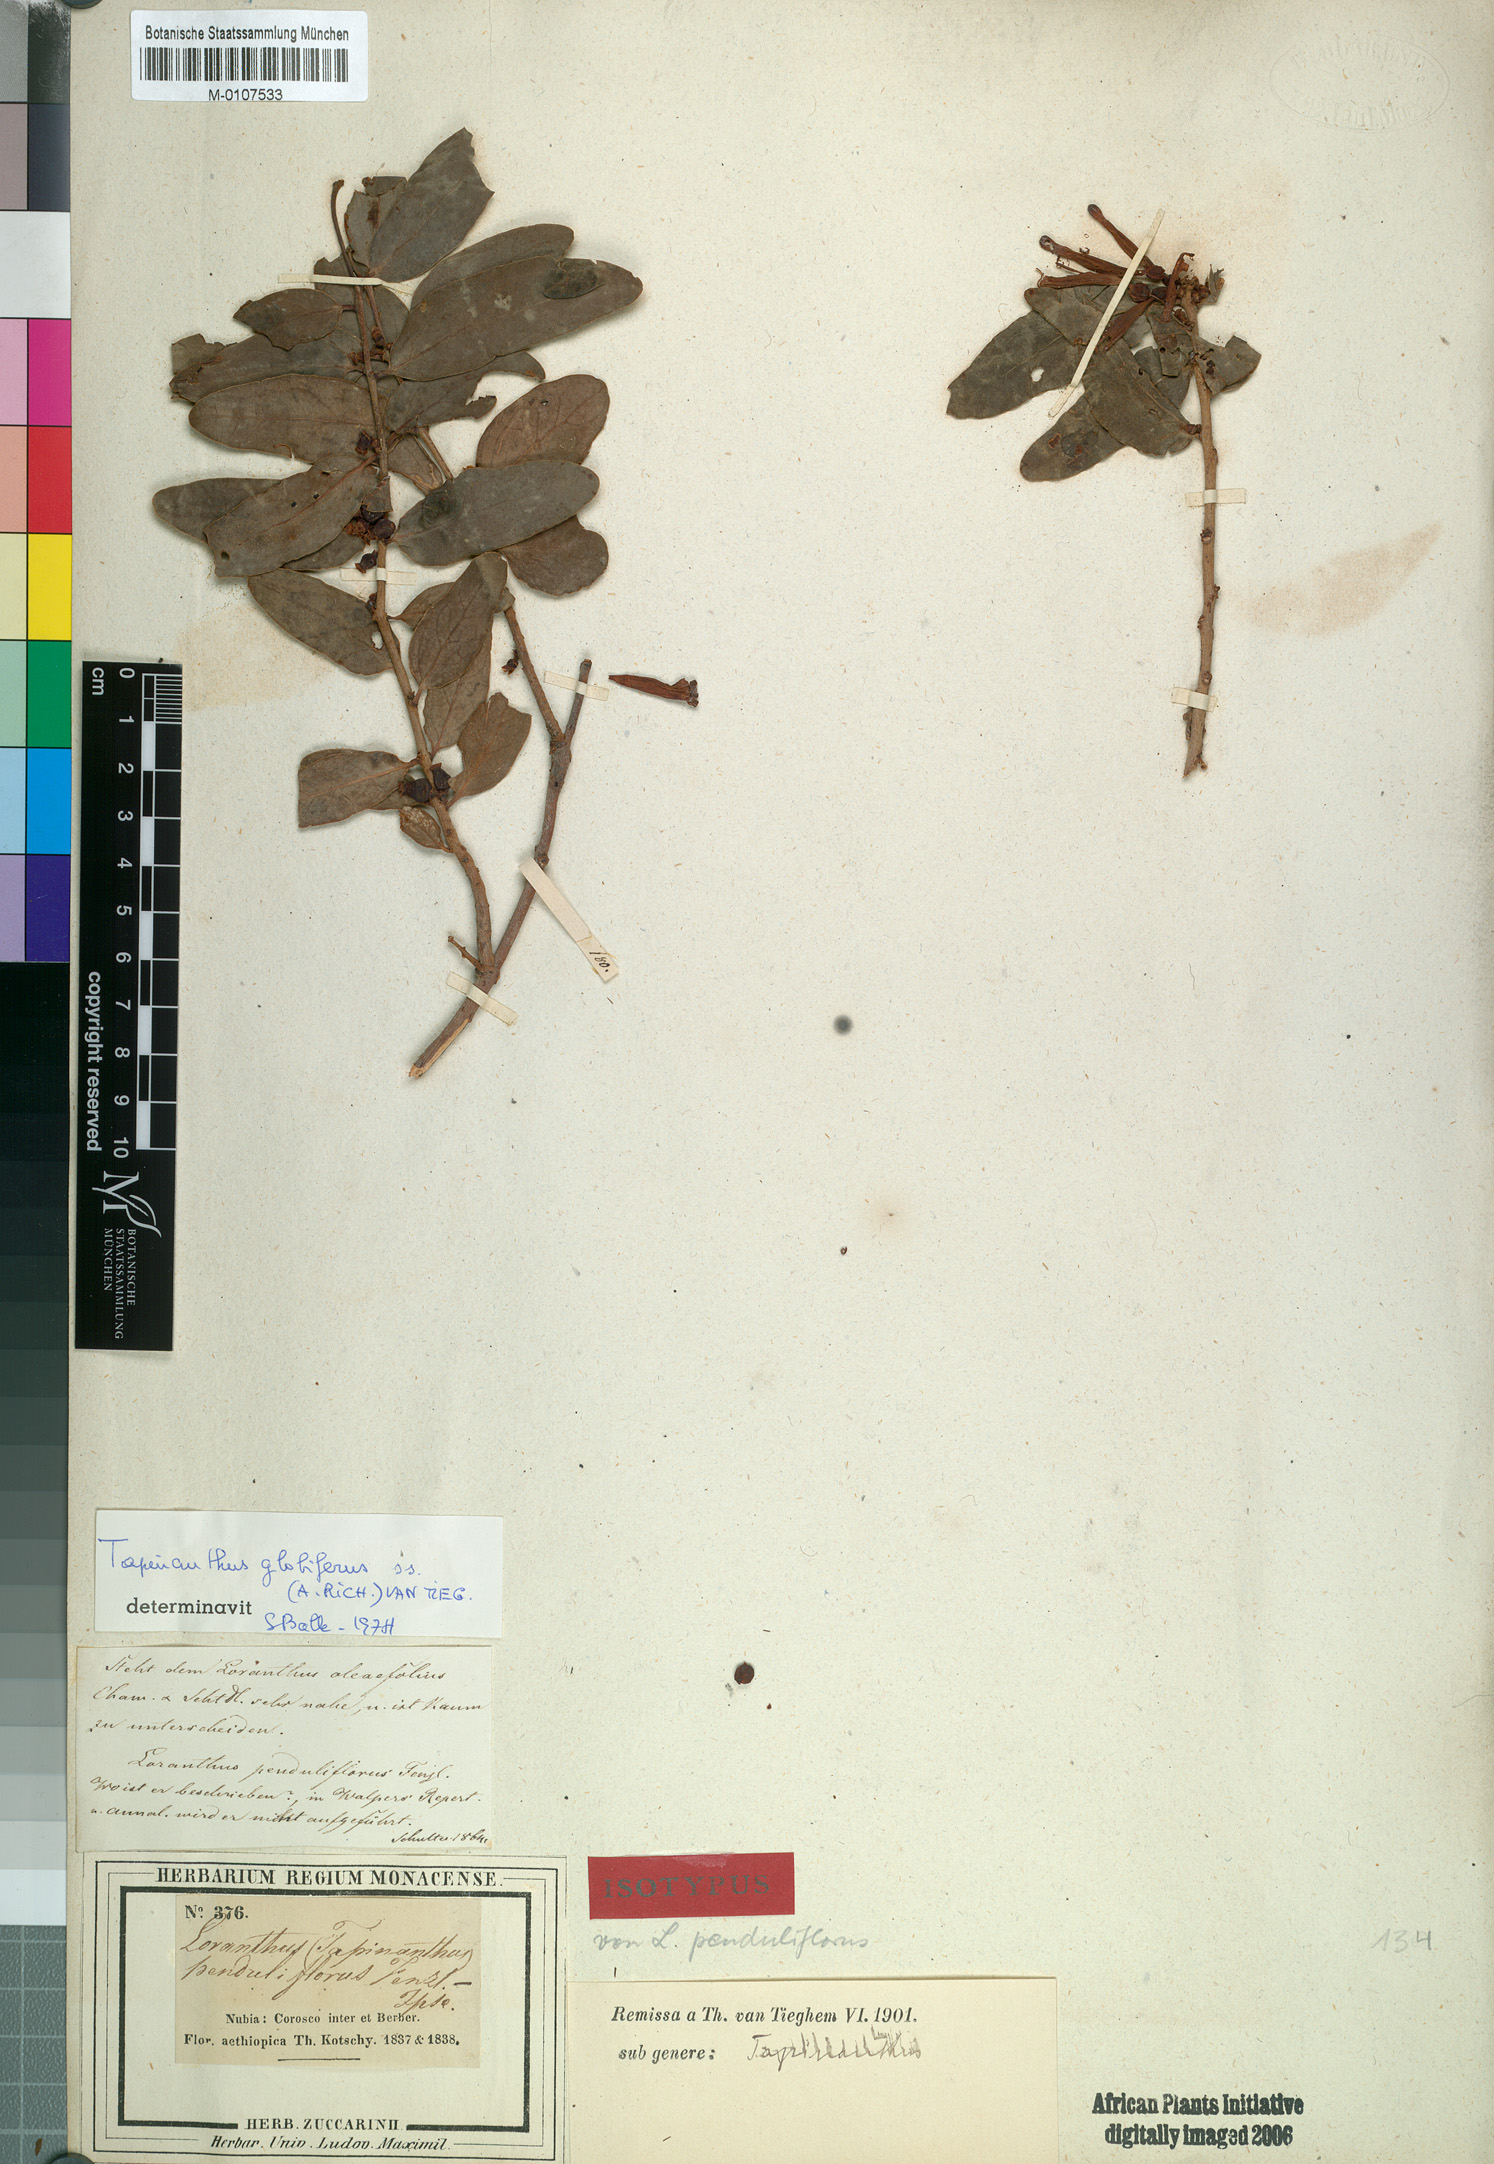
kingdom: Plantae
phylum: Tracheophyta
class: Magnoliopsida
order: Santalales
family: Loranthaceae
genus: Tapinanthus
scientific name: Tapinanthus globifer
